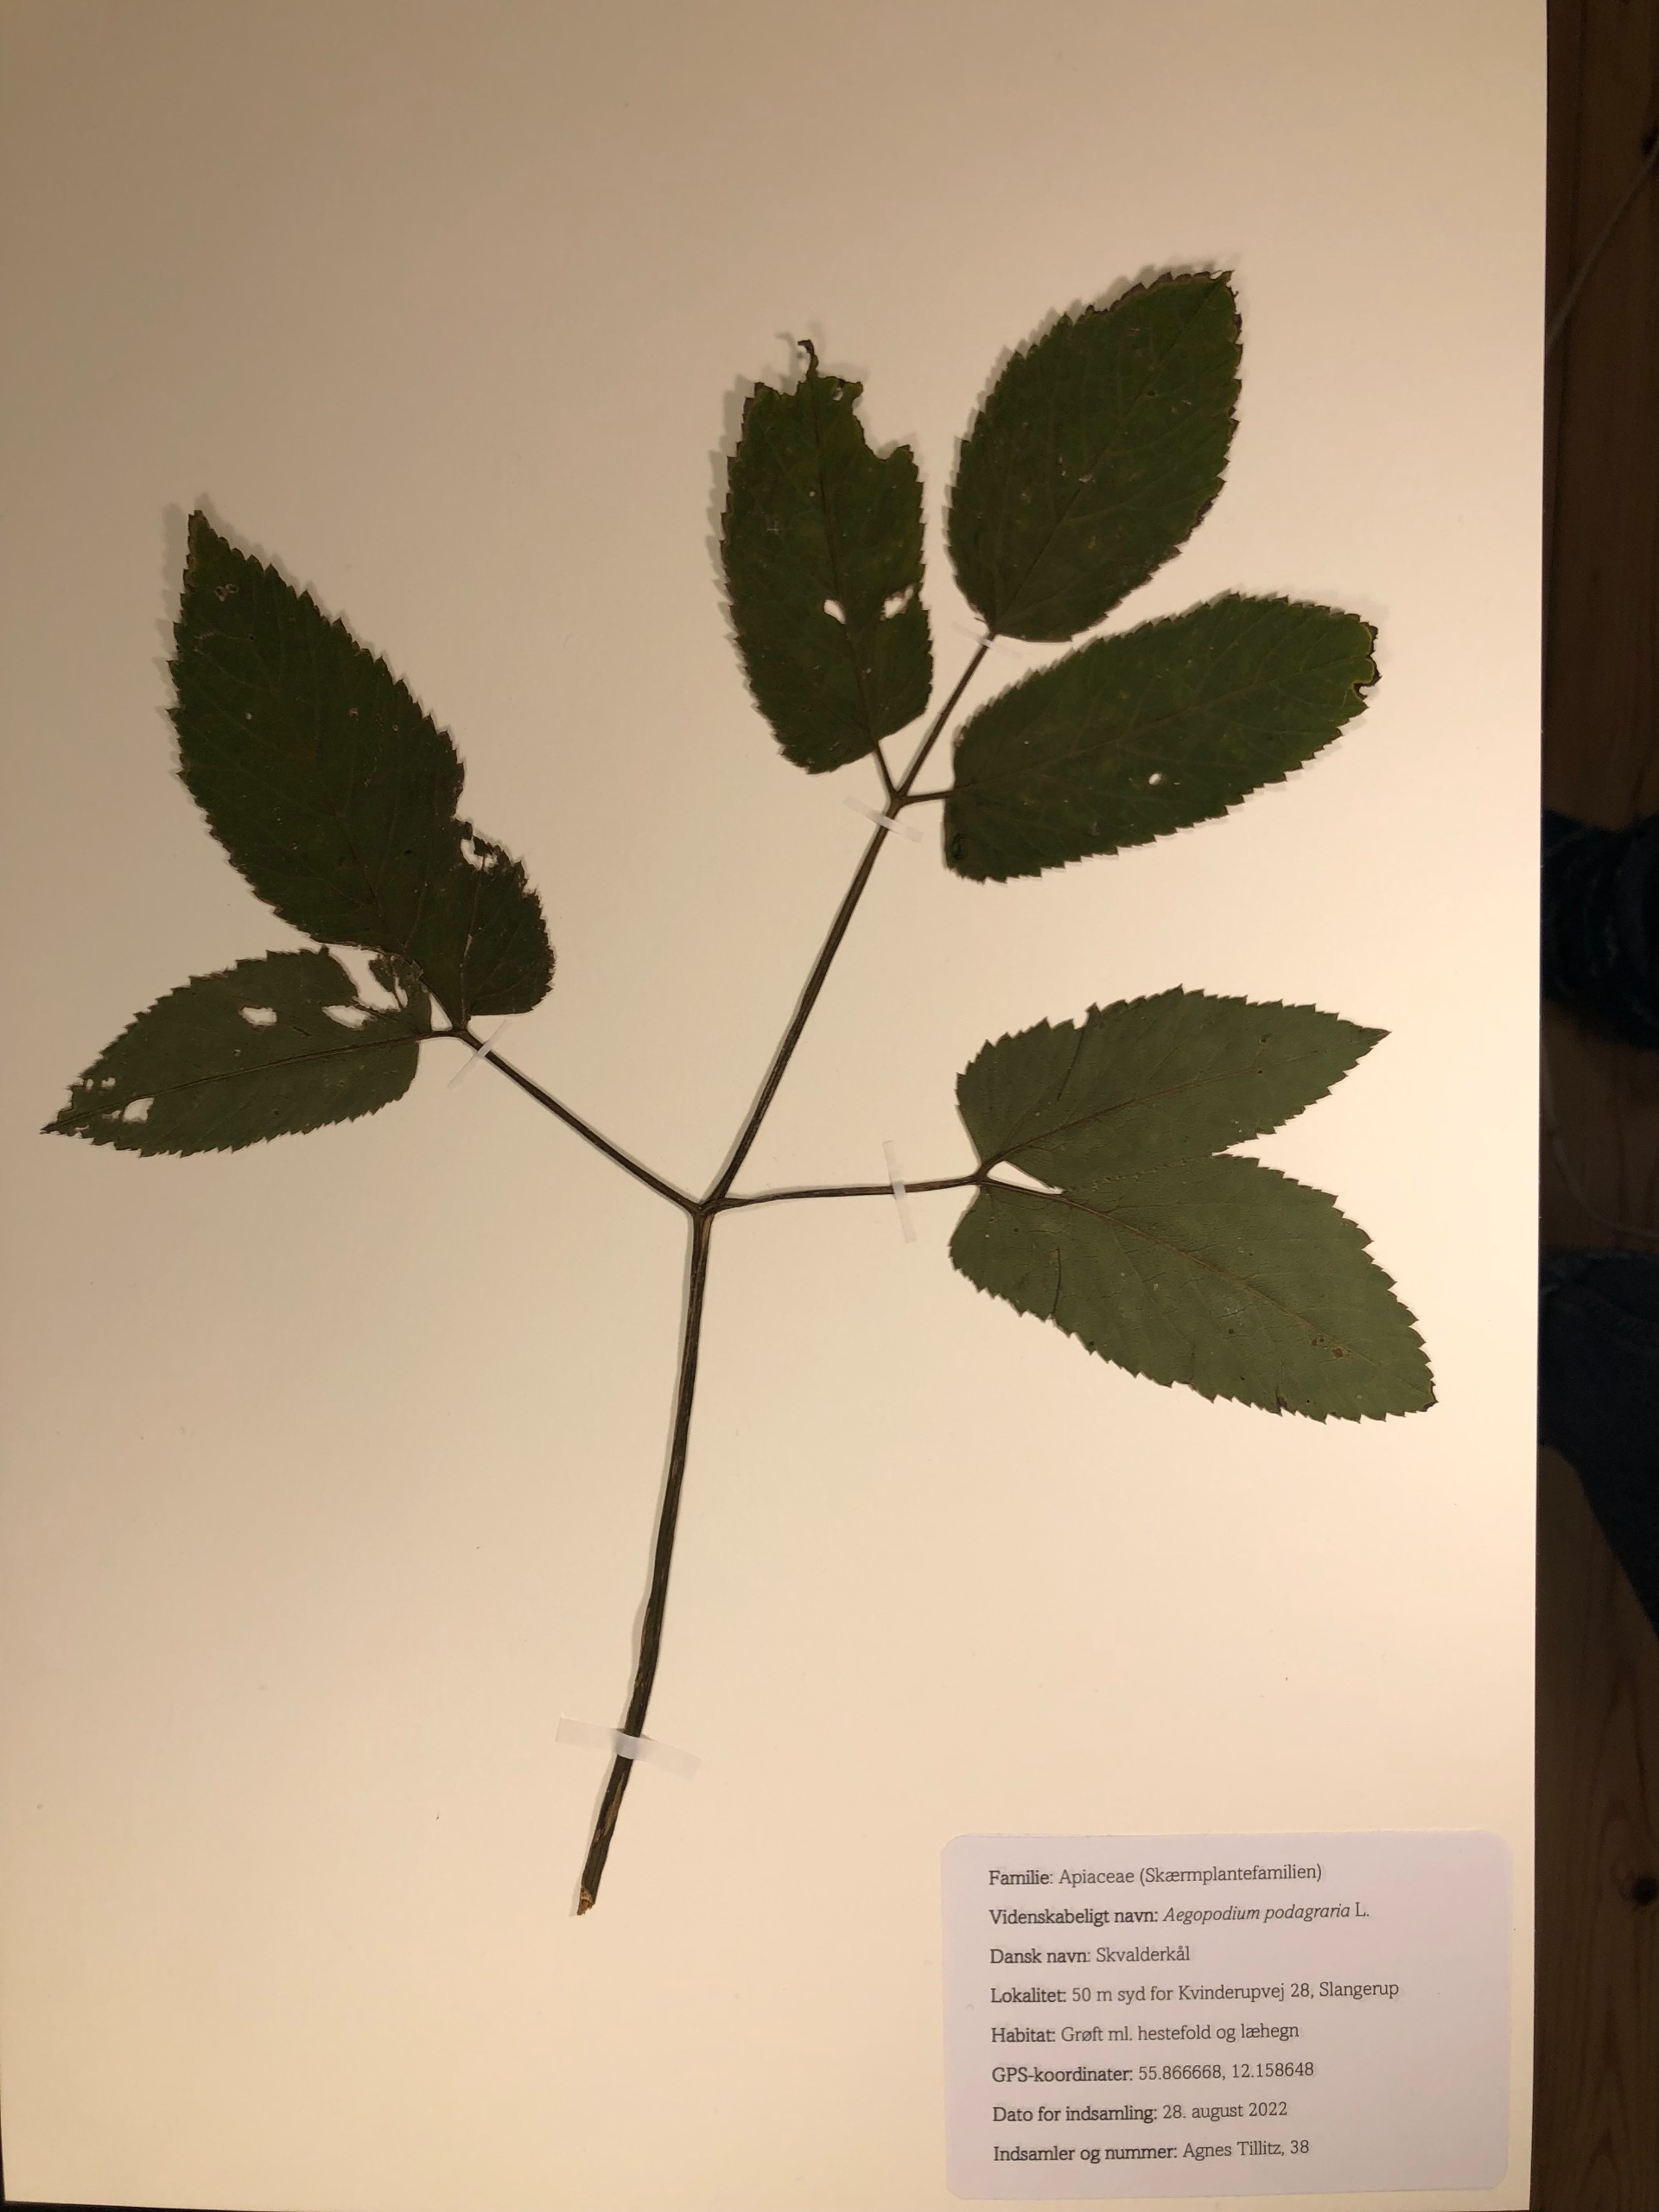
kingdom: Plantae
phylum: Tracheophyta
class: Magnoliopsida
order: Apiales
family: Apiaceae
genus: Aegopodium
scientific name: Aegopodium podagraria
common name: Skvalderkål
